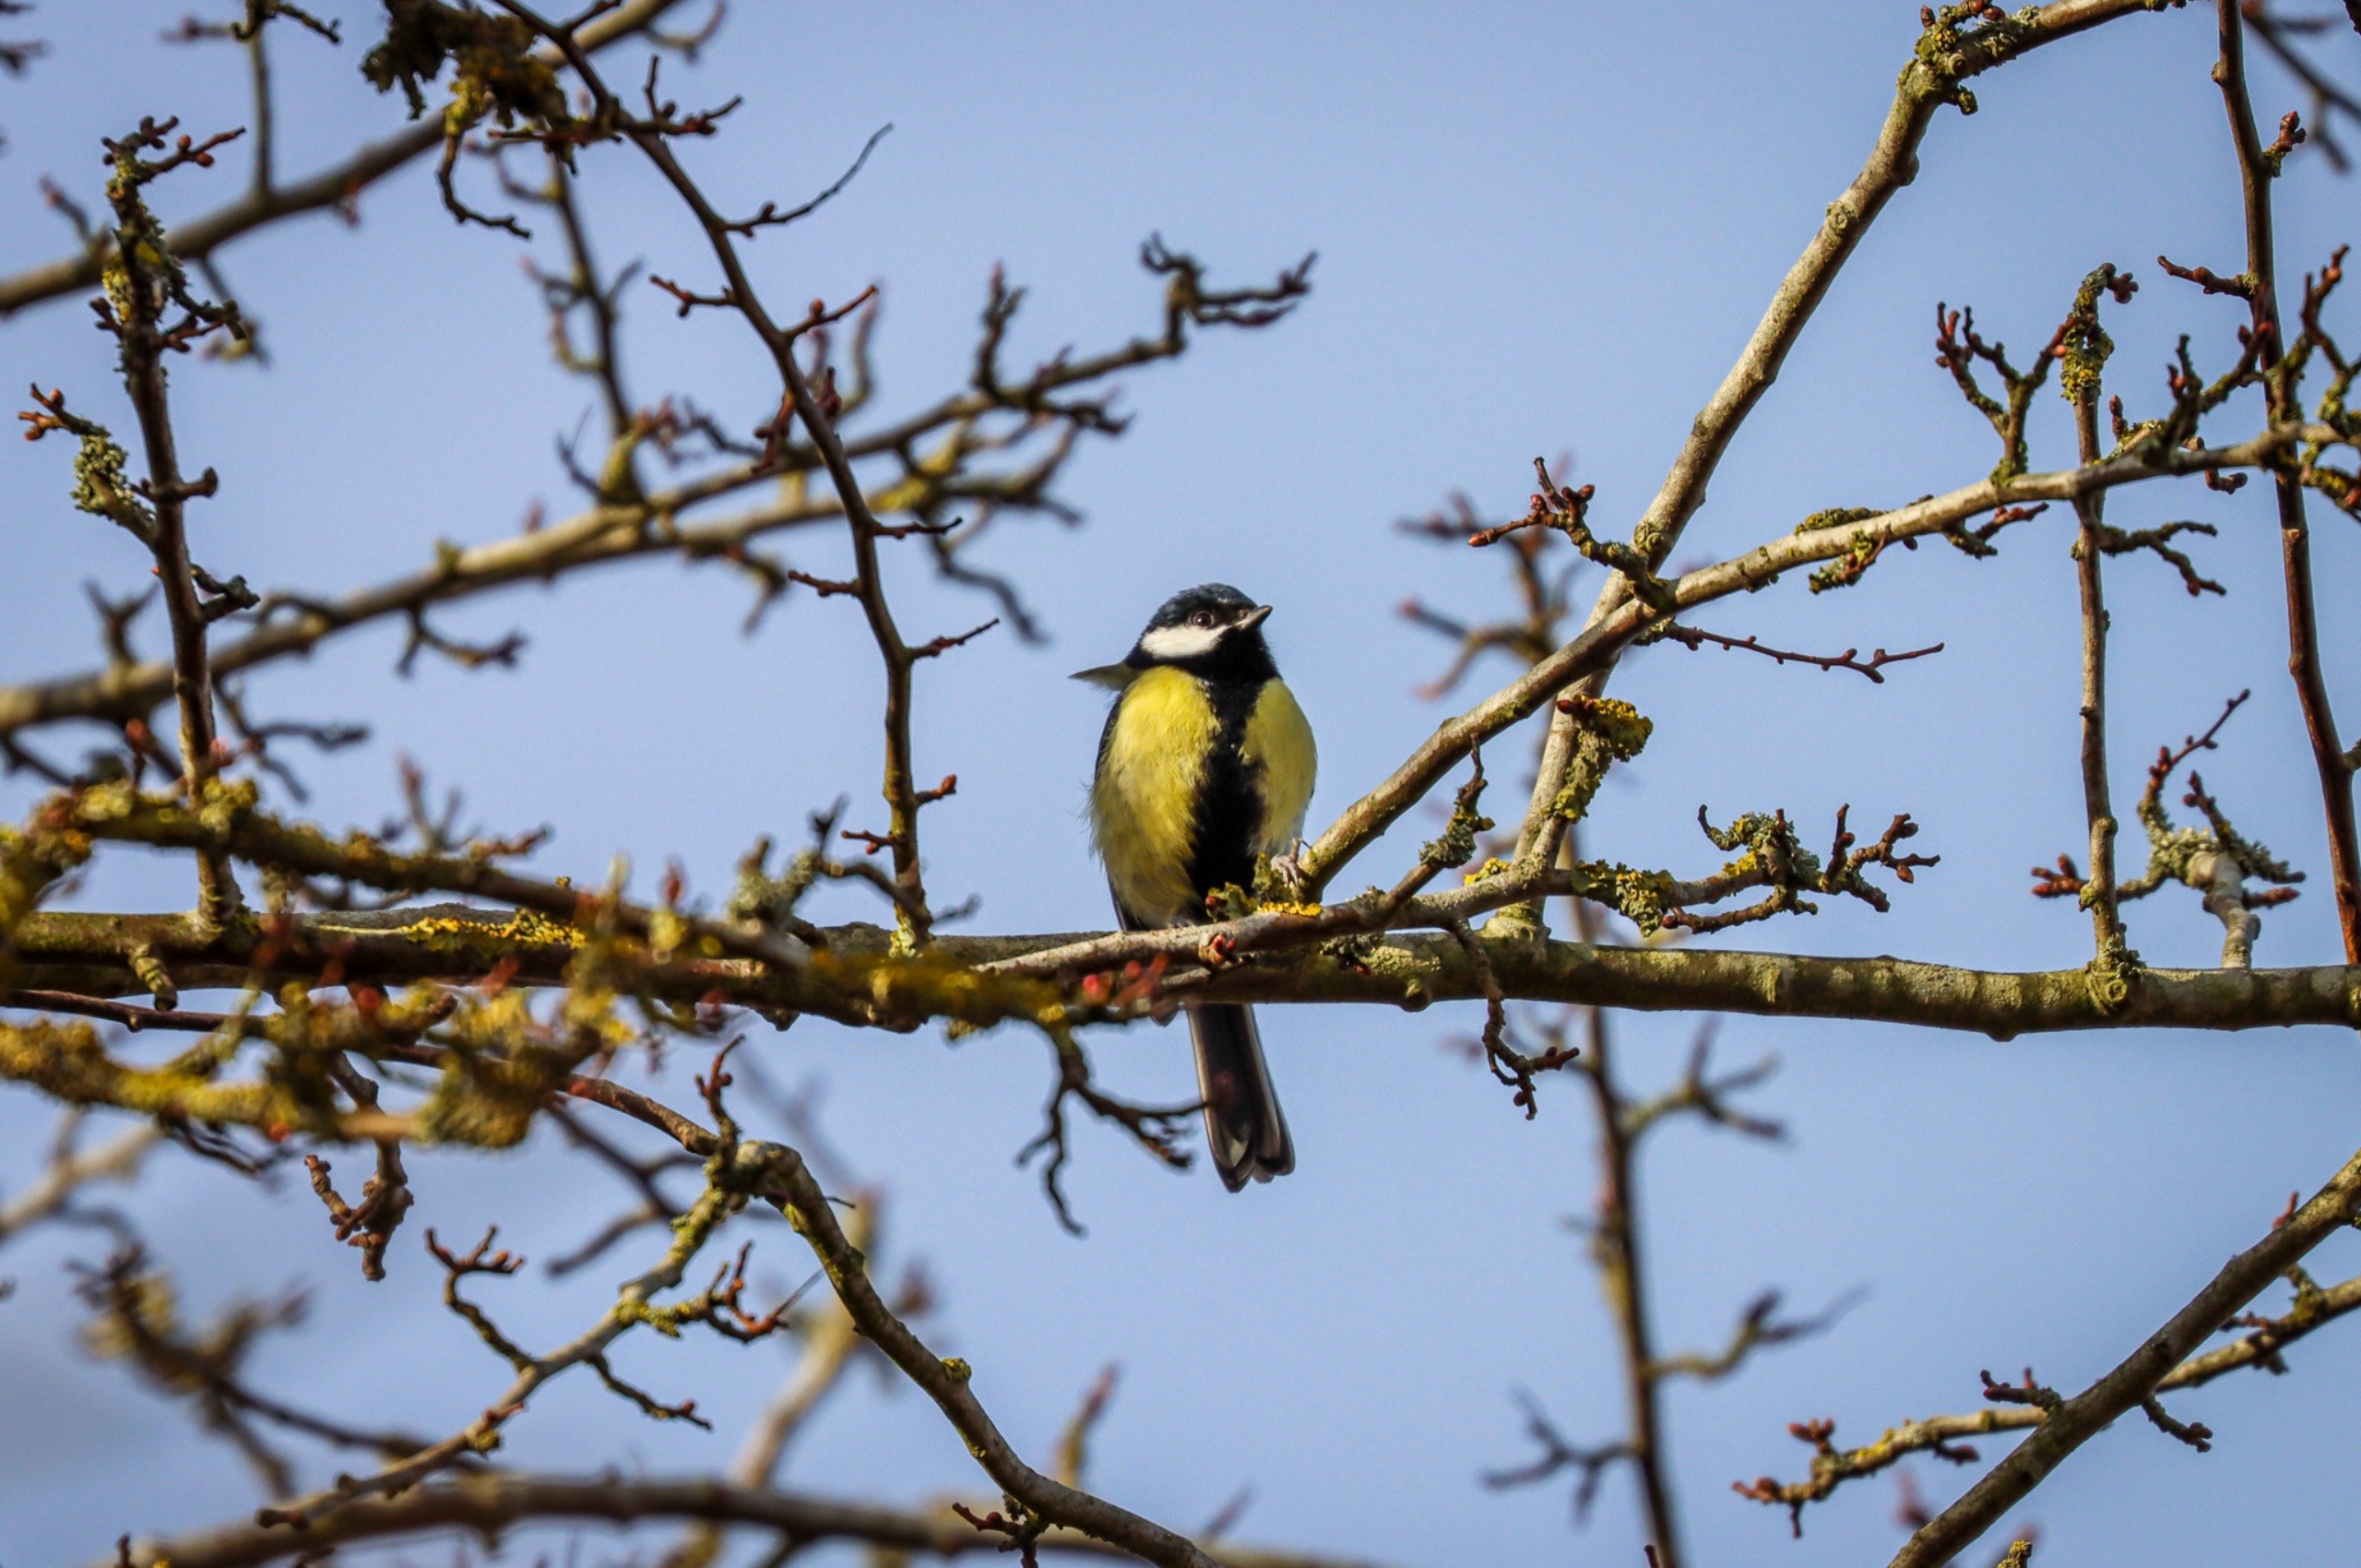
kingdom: Animalia
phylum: Chordata
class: Aves
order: Passeriformes
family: Paridae
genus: Parus
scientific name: Parus major
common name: Musvit
